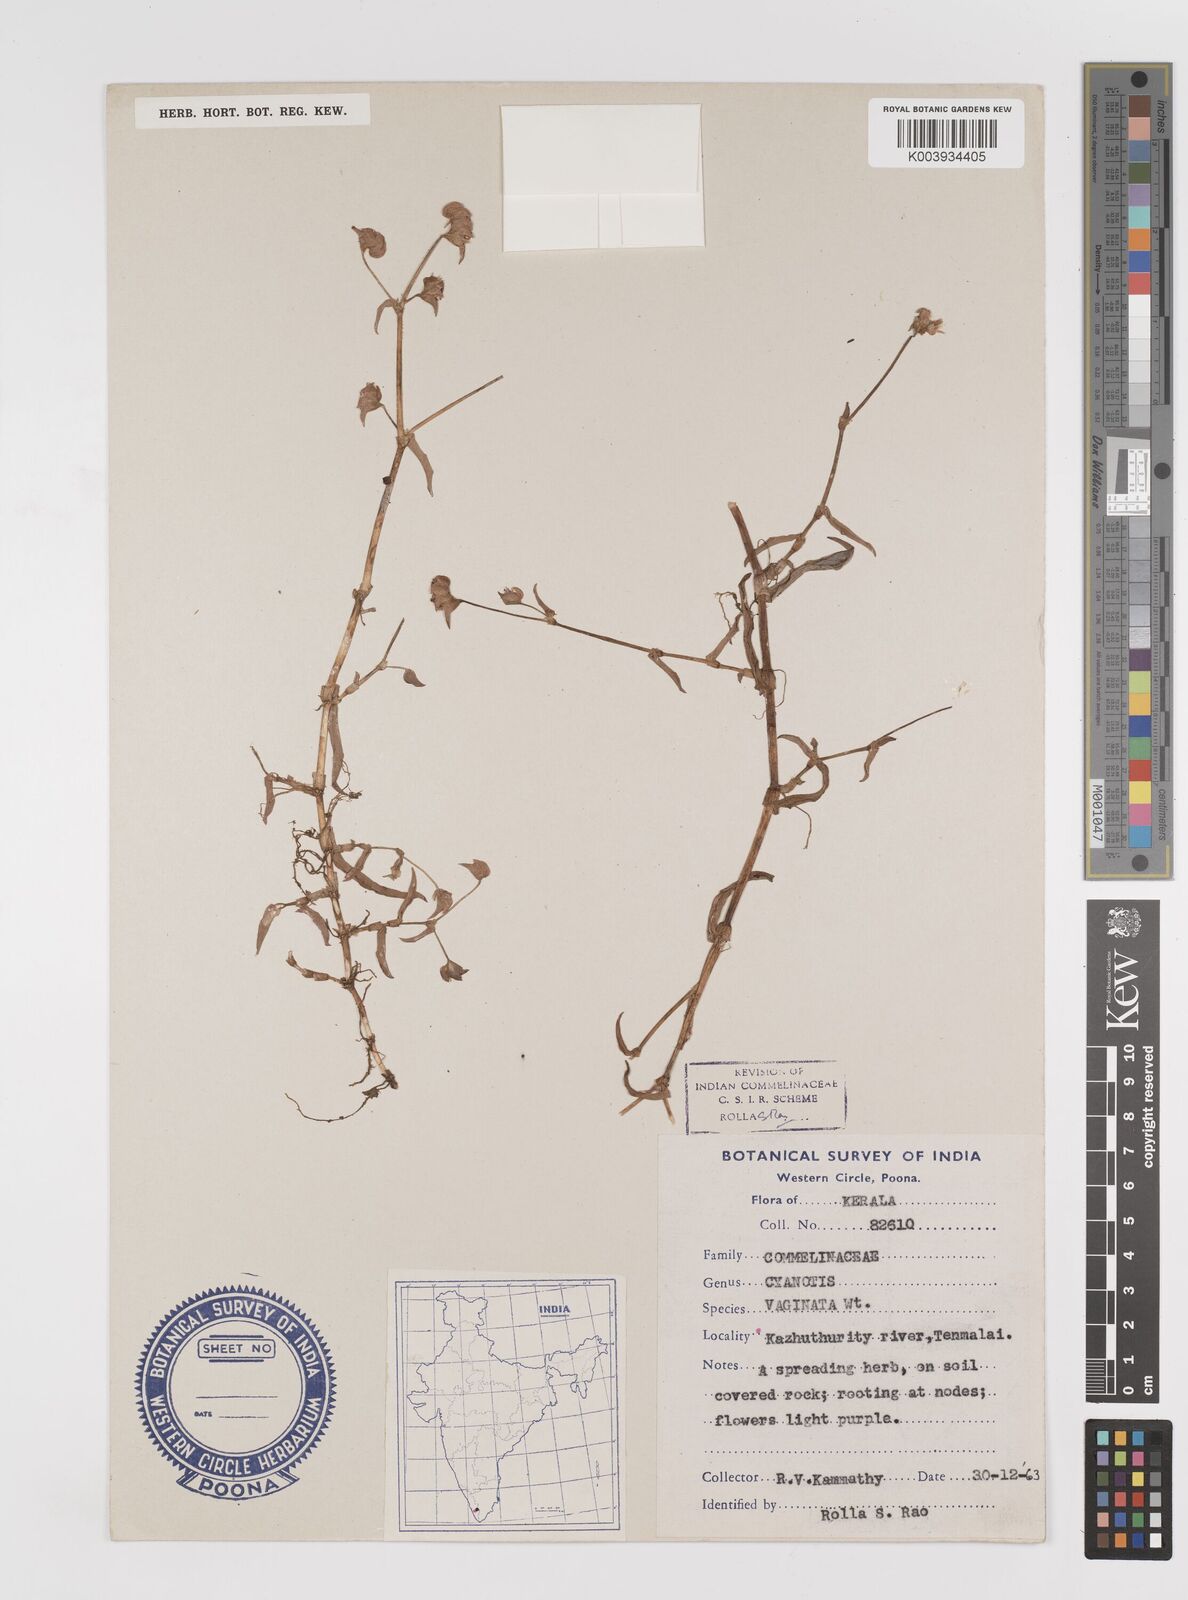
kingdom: Plantae
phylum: Tracheophyta
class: Liliopsida
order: Commelinales
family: Commelinaceae
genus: Cyanotis
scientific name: Cyanotis burmanniana
